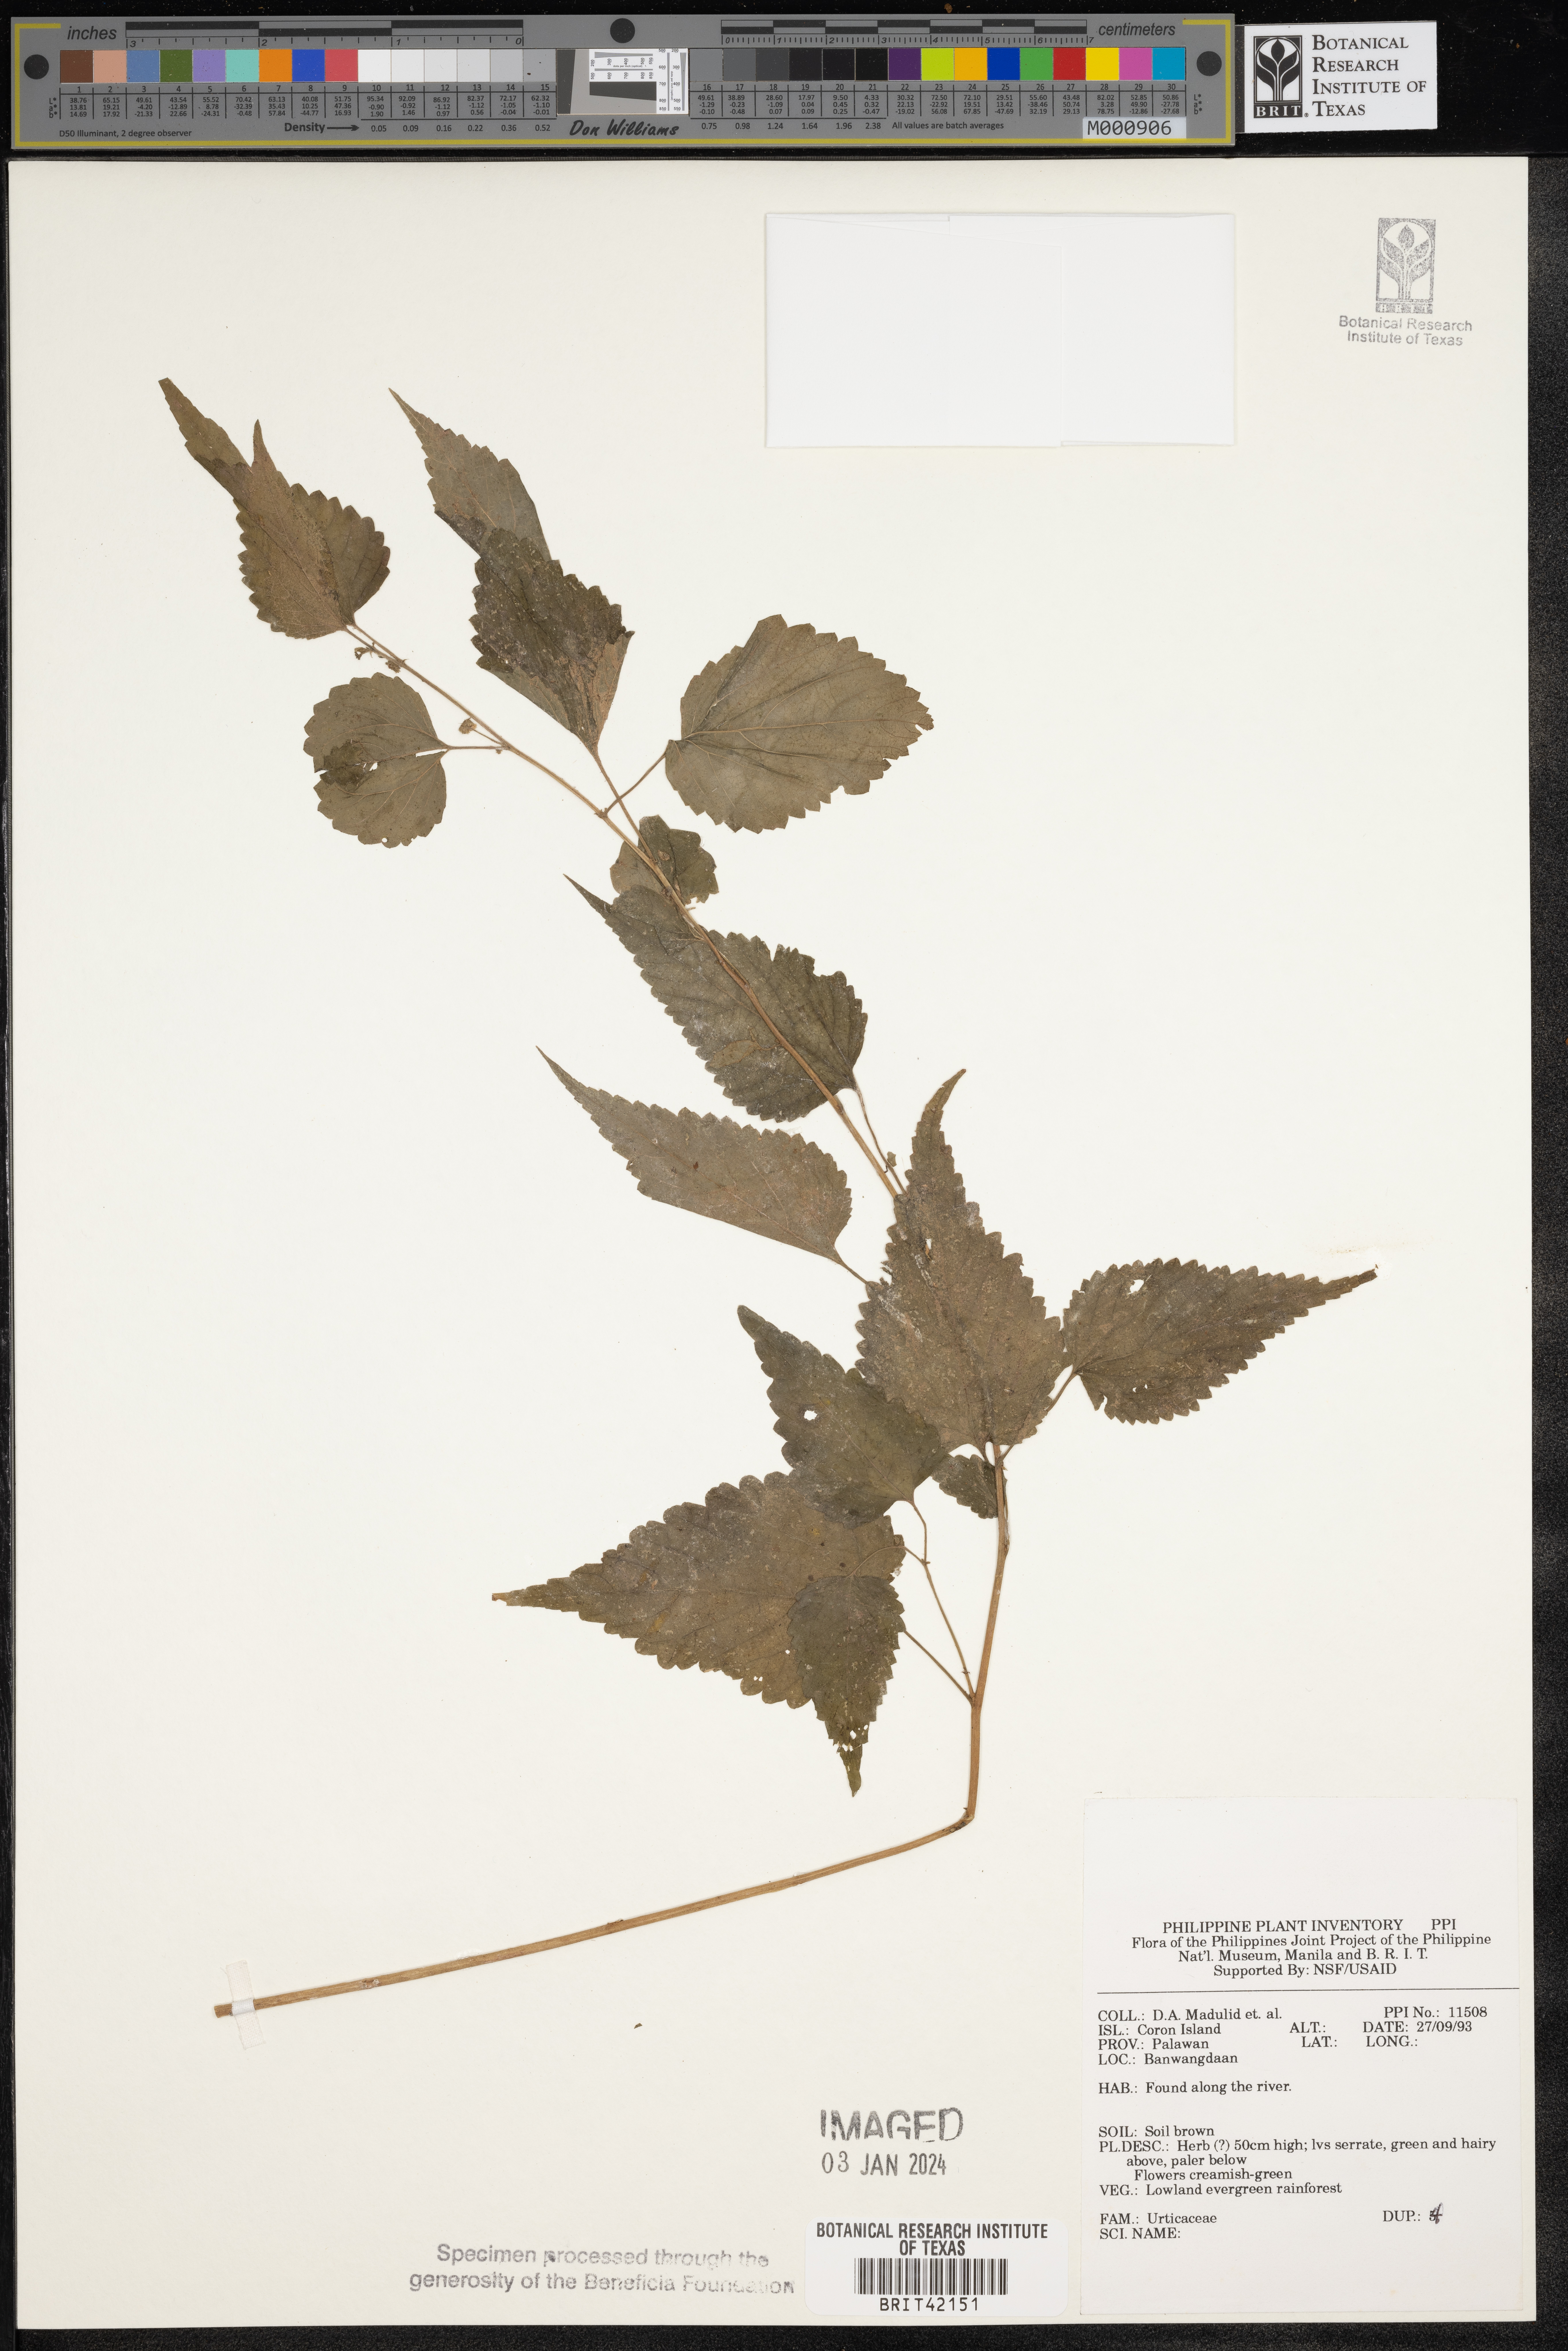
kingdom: Plantae
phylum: Tracheophyta
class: Magnoliopsida
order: Rosales
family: Urticaceae
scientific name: Urticaceae
